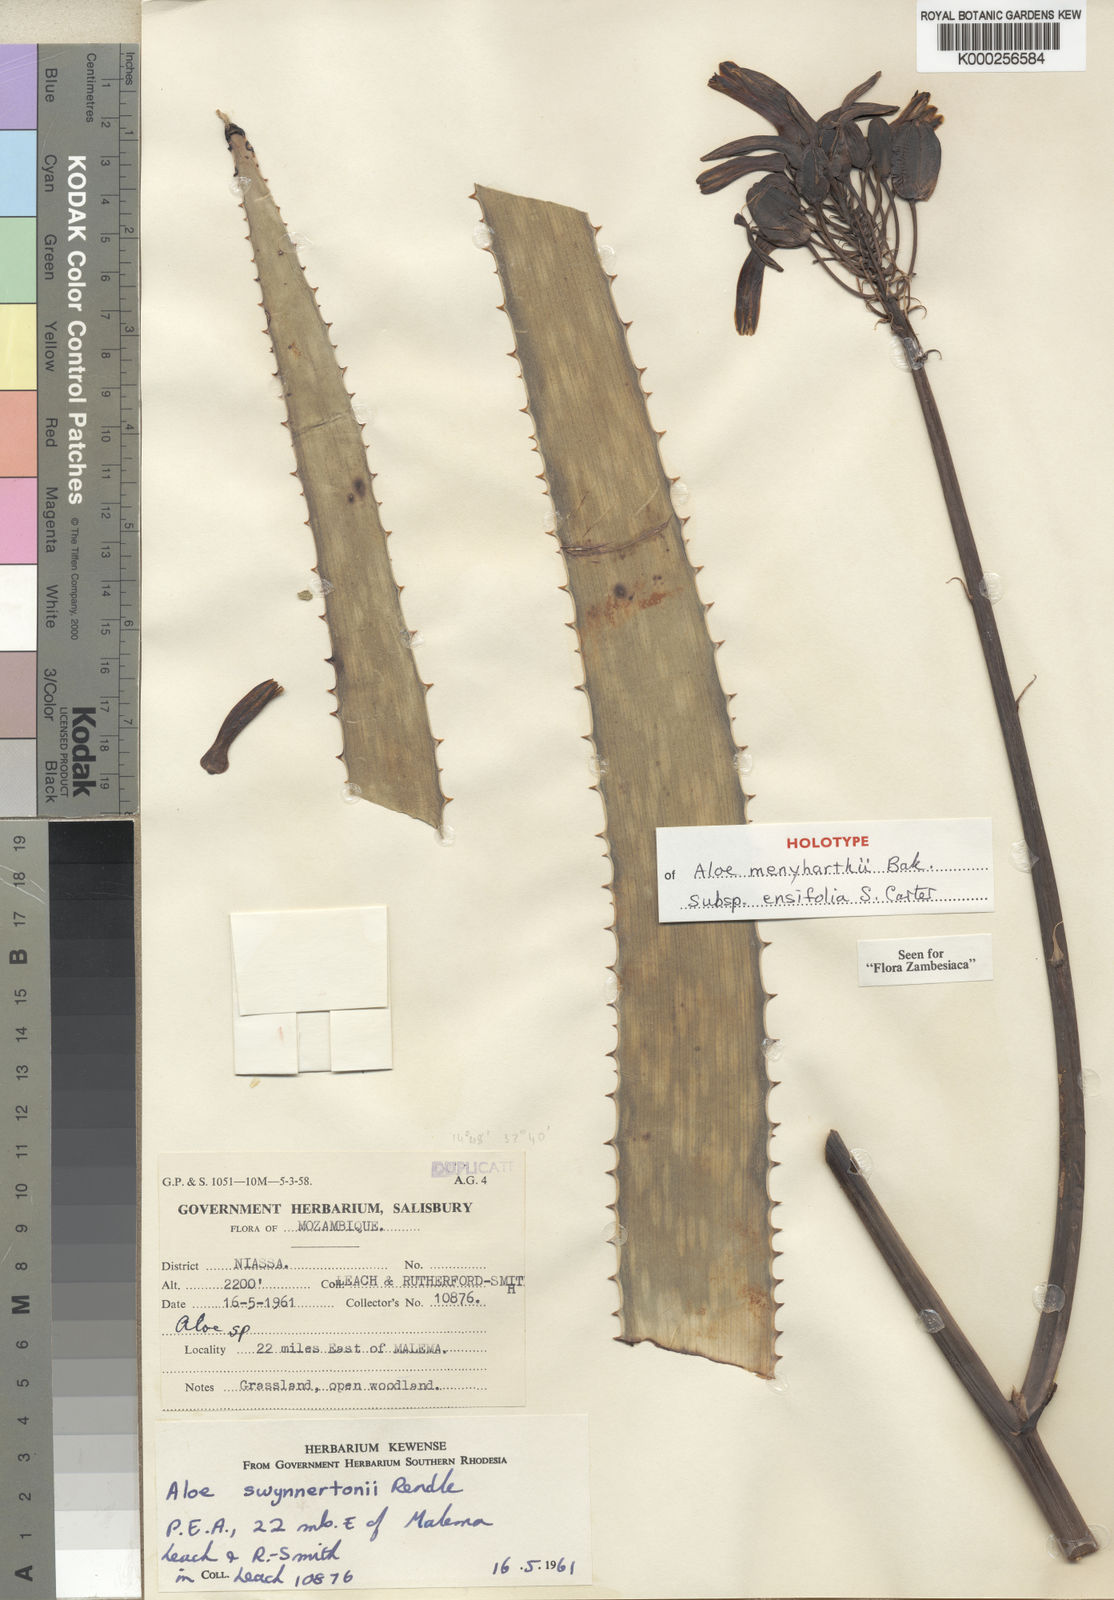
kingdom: Plantae
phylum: Tracheophyta
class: Liliopsida
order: Asparagales
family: Asphodelaceae
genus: Aloe
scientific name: Aloe menyharthii
